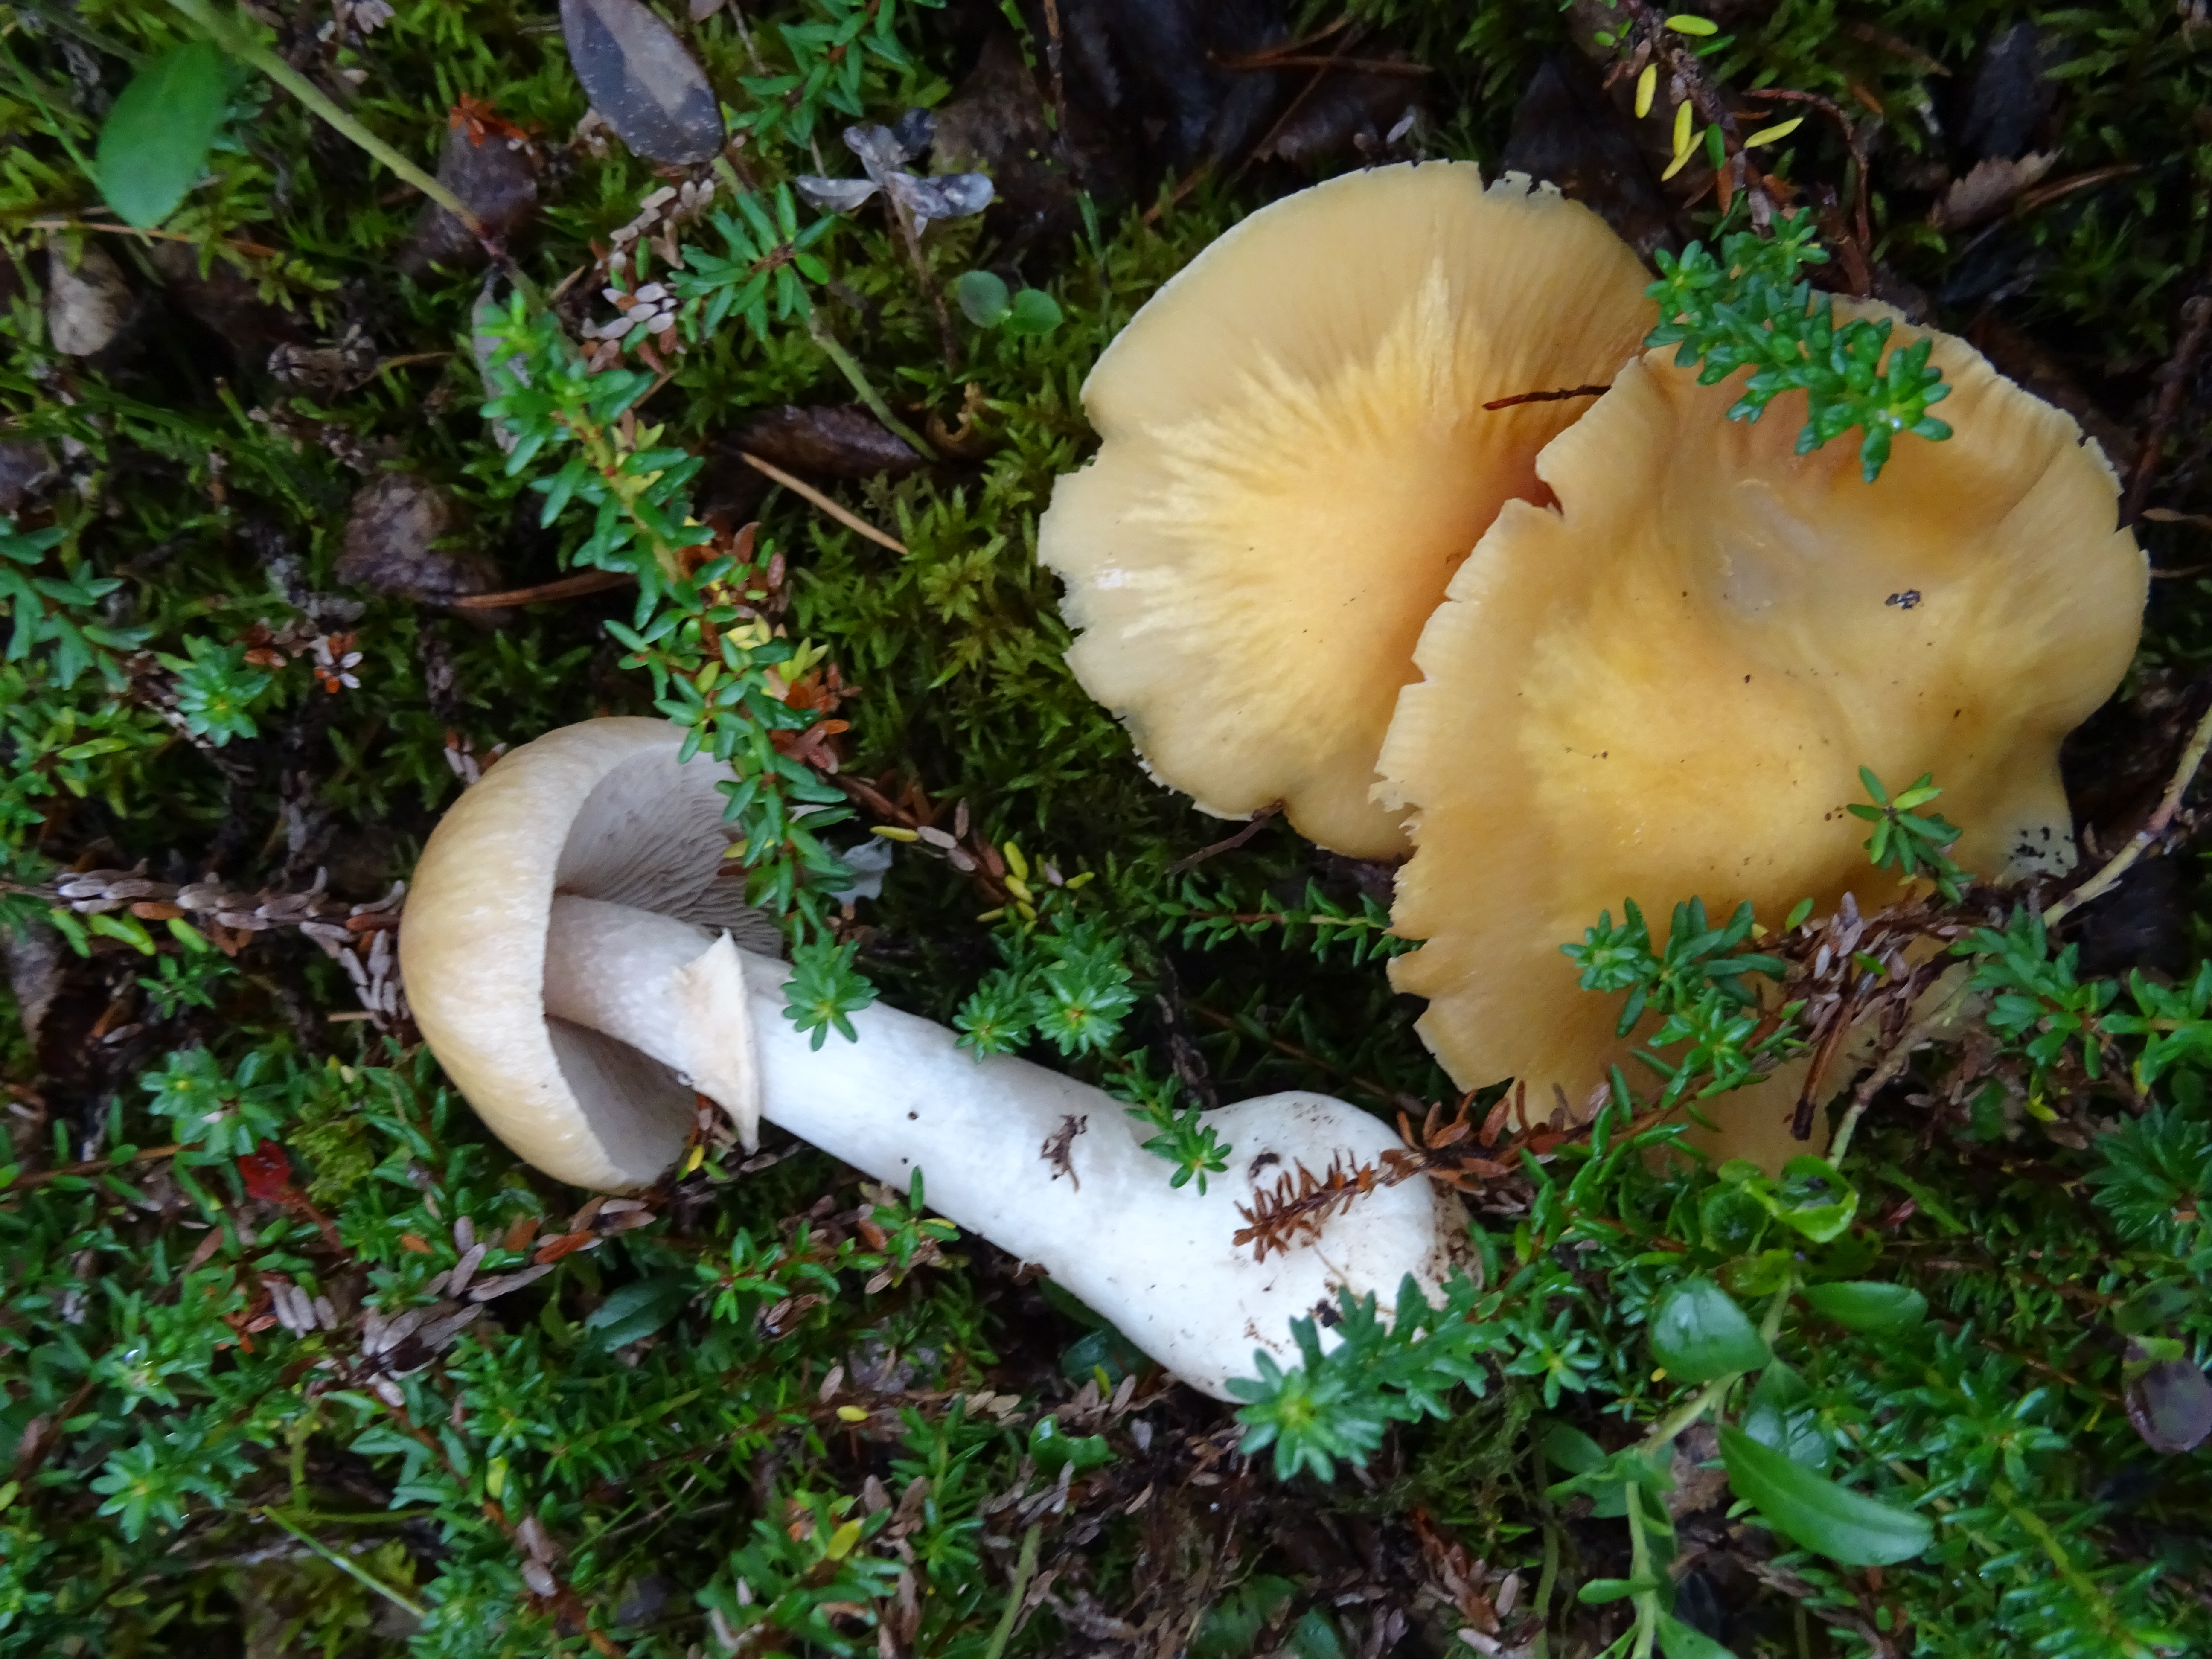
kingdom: Fungi
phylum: Basidiomycota
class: Agaricomycetes
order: Agaricales
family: Cortinariaceae
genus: Cortinarius
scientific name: Cortinarius caperatus
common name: The gypsy
